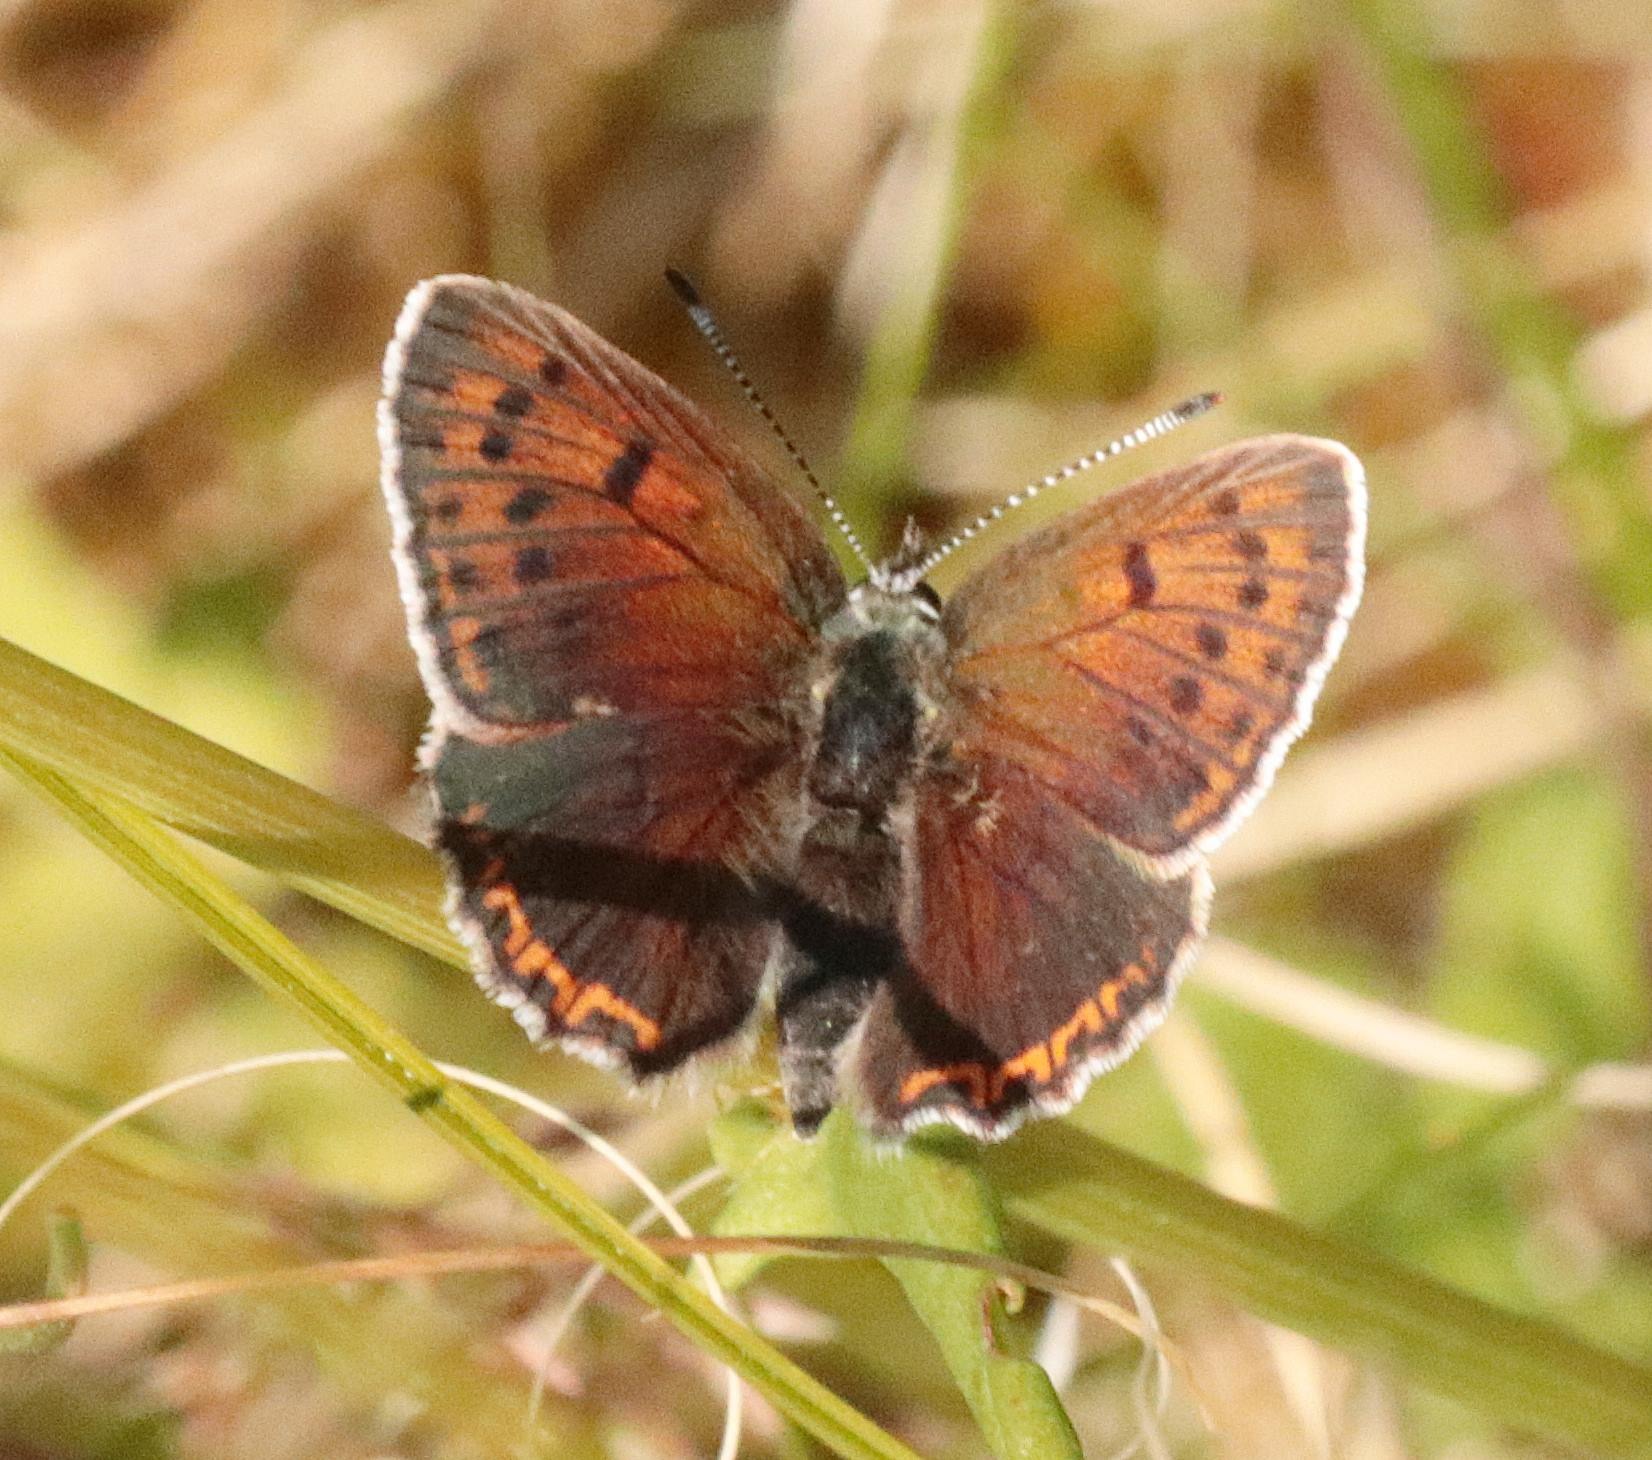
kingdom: Animalia
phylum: Arthropoda
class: Insecta
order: Lepidoptera
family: Lycaenidae
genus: Palaeochrysophanus
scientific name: Palaeochrysophanus hippothoe
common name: Violetrandet ildfugl
